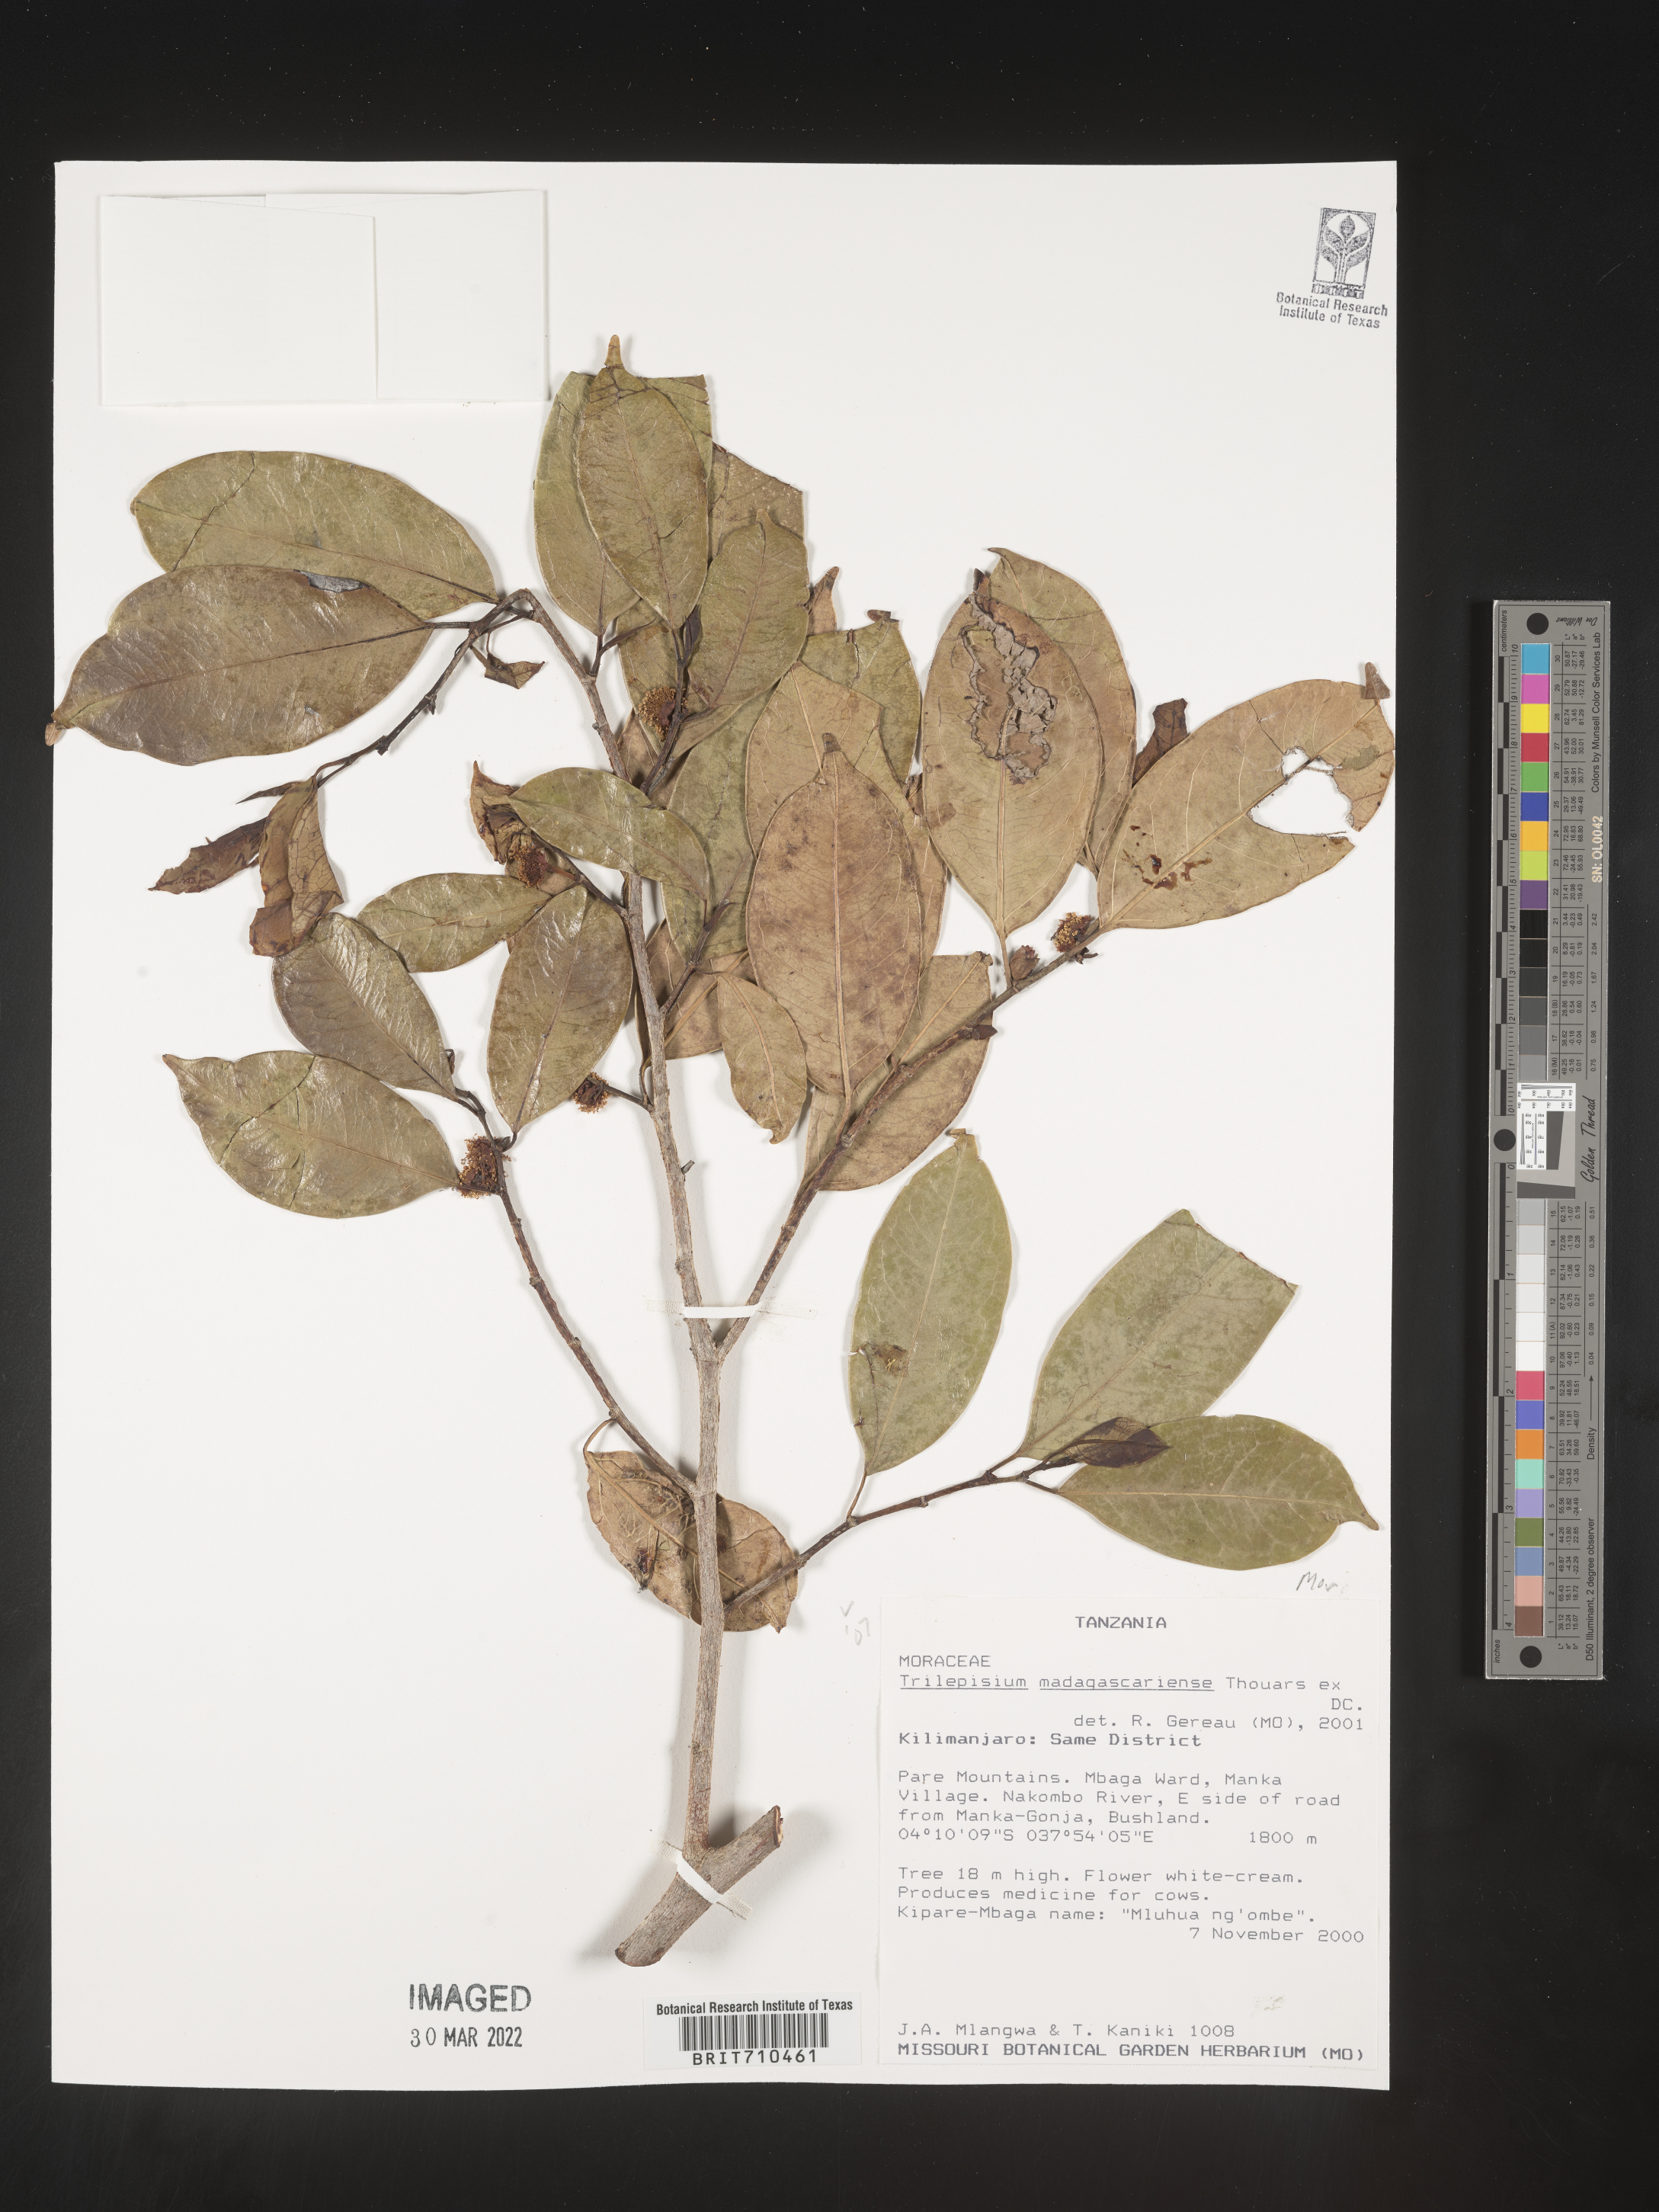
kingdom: Plantae
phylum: Tracheophyta
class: Magnoliopsida
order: Rosales
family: Moraceae
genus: Trilepisium
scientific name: Trilepisium
